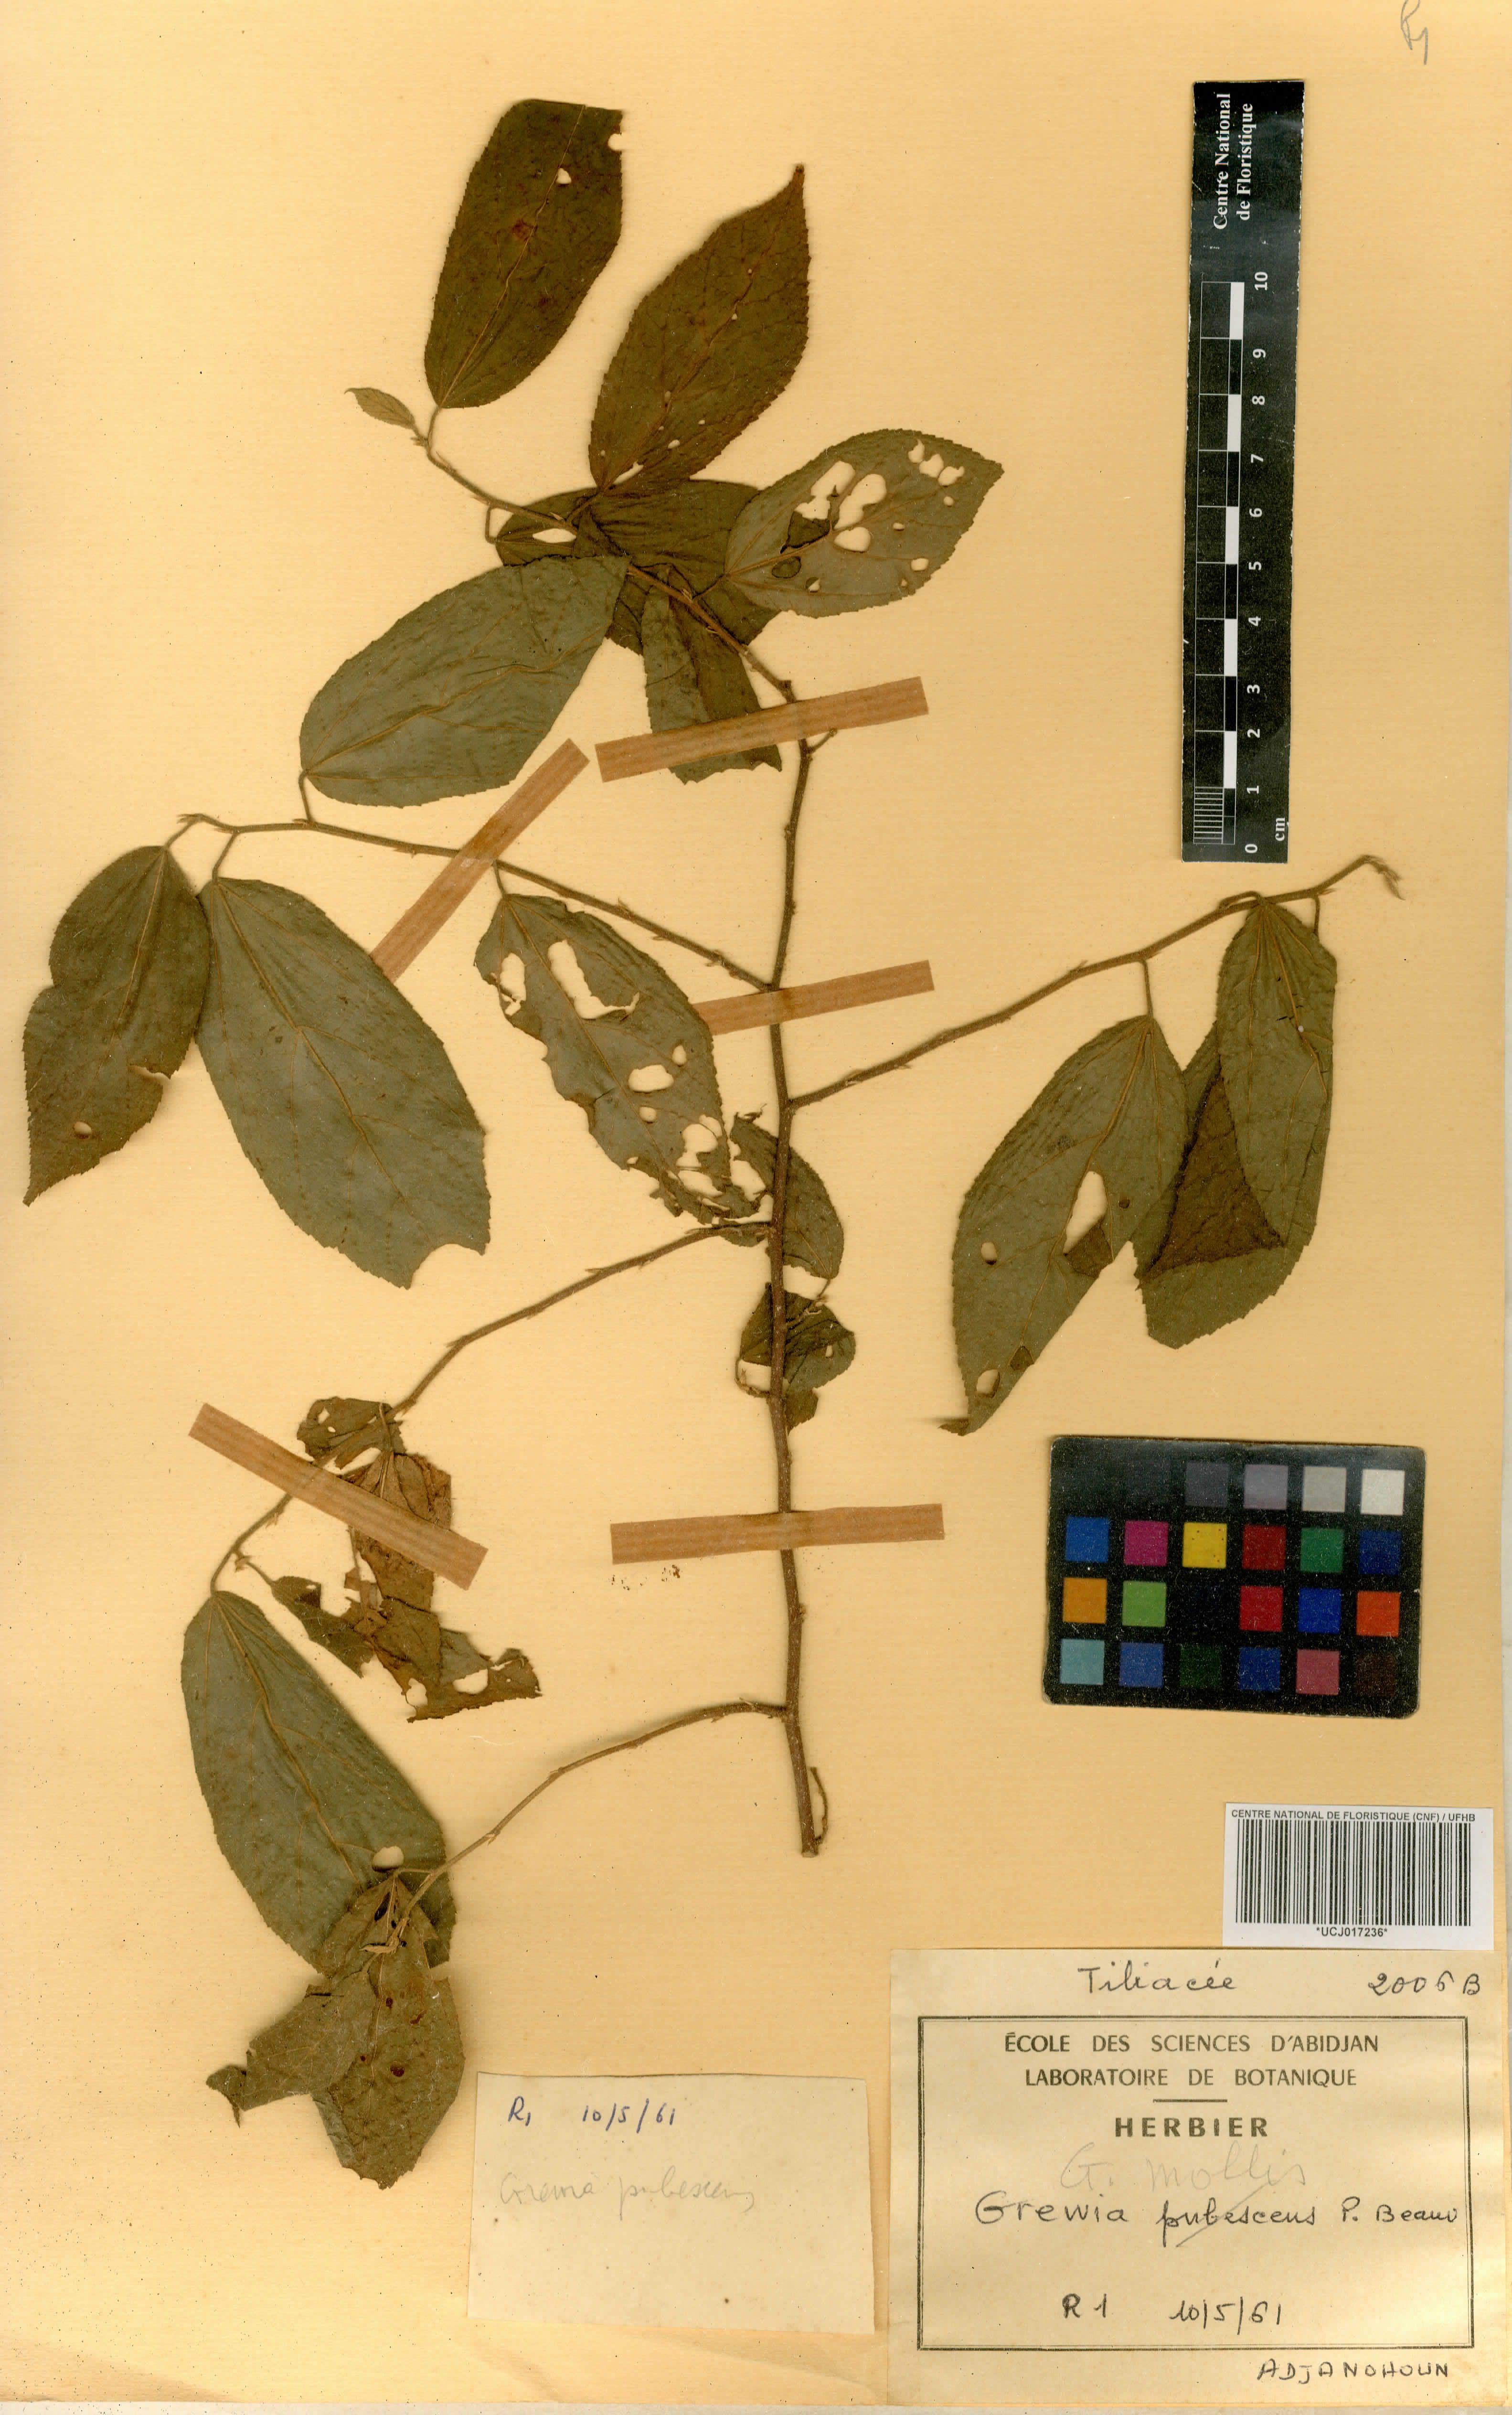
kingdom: Plantae
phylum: Tracheophyta
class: Magnoliopsida
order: Malvales
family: Malvaceae
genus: Grewia
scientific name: Grewia mollis
